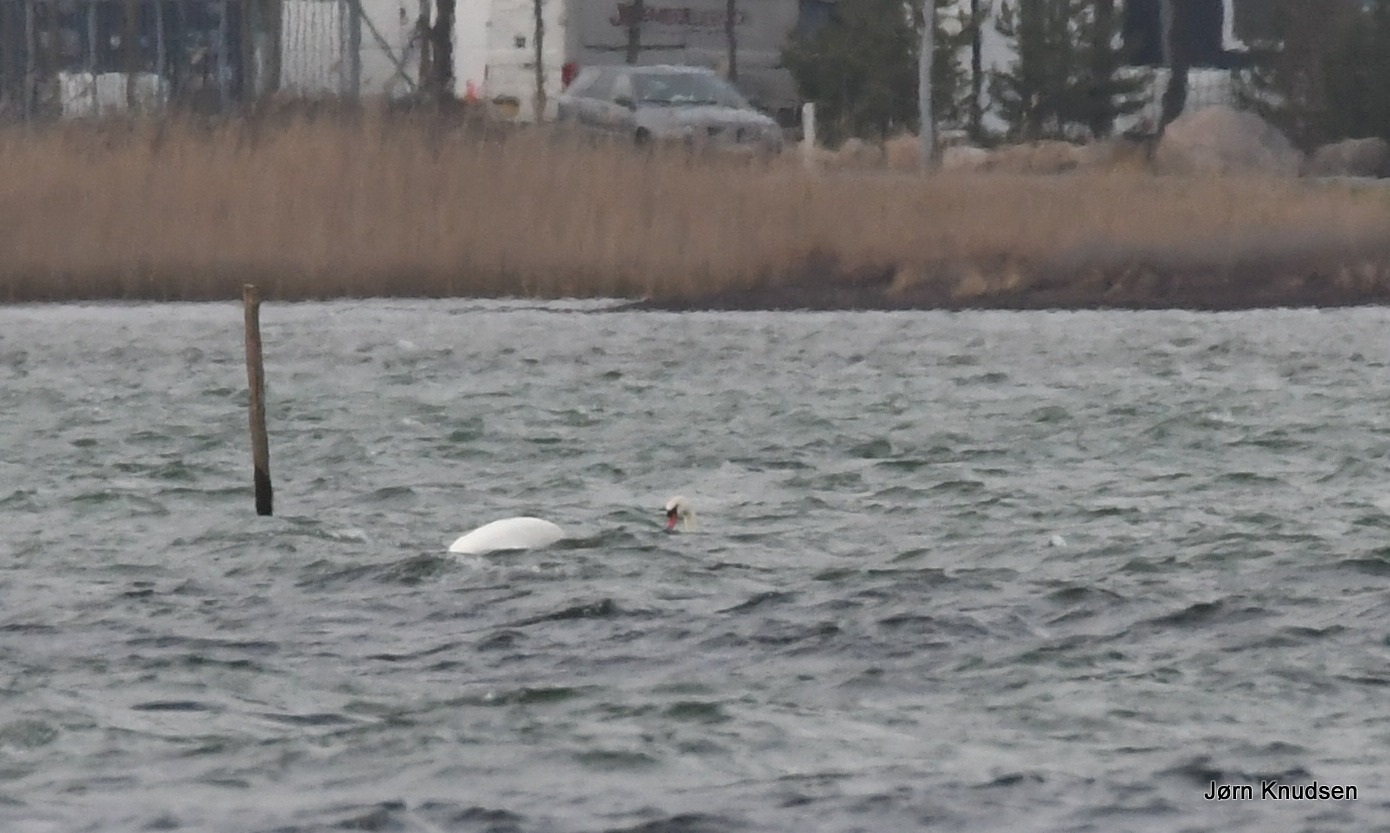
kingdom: Animalia
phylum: Chordata
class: Aves
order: Anseriformes
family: Anatidae
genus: Cygnus
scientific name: Cygnus olor
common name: Knopsvane
